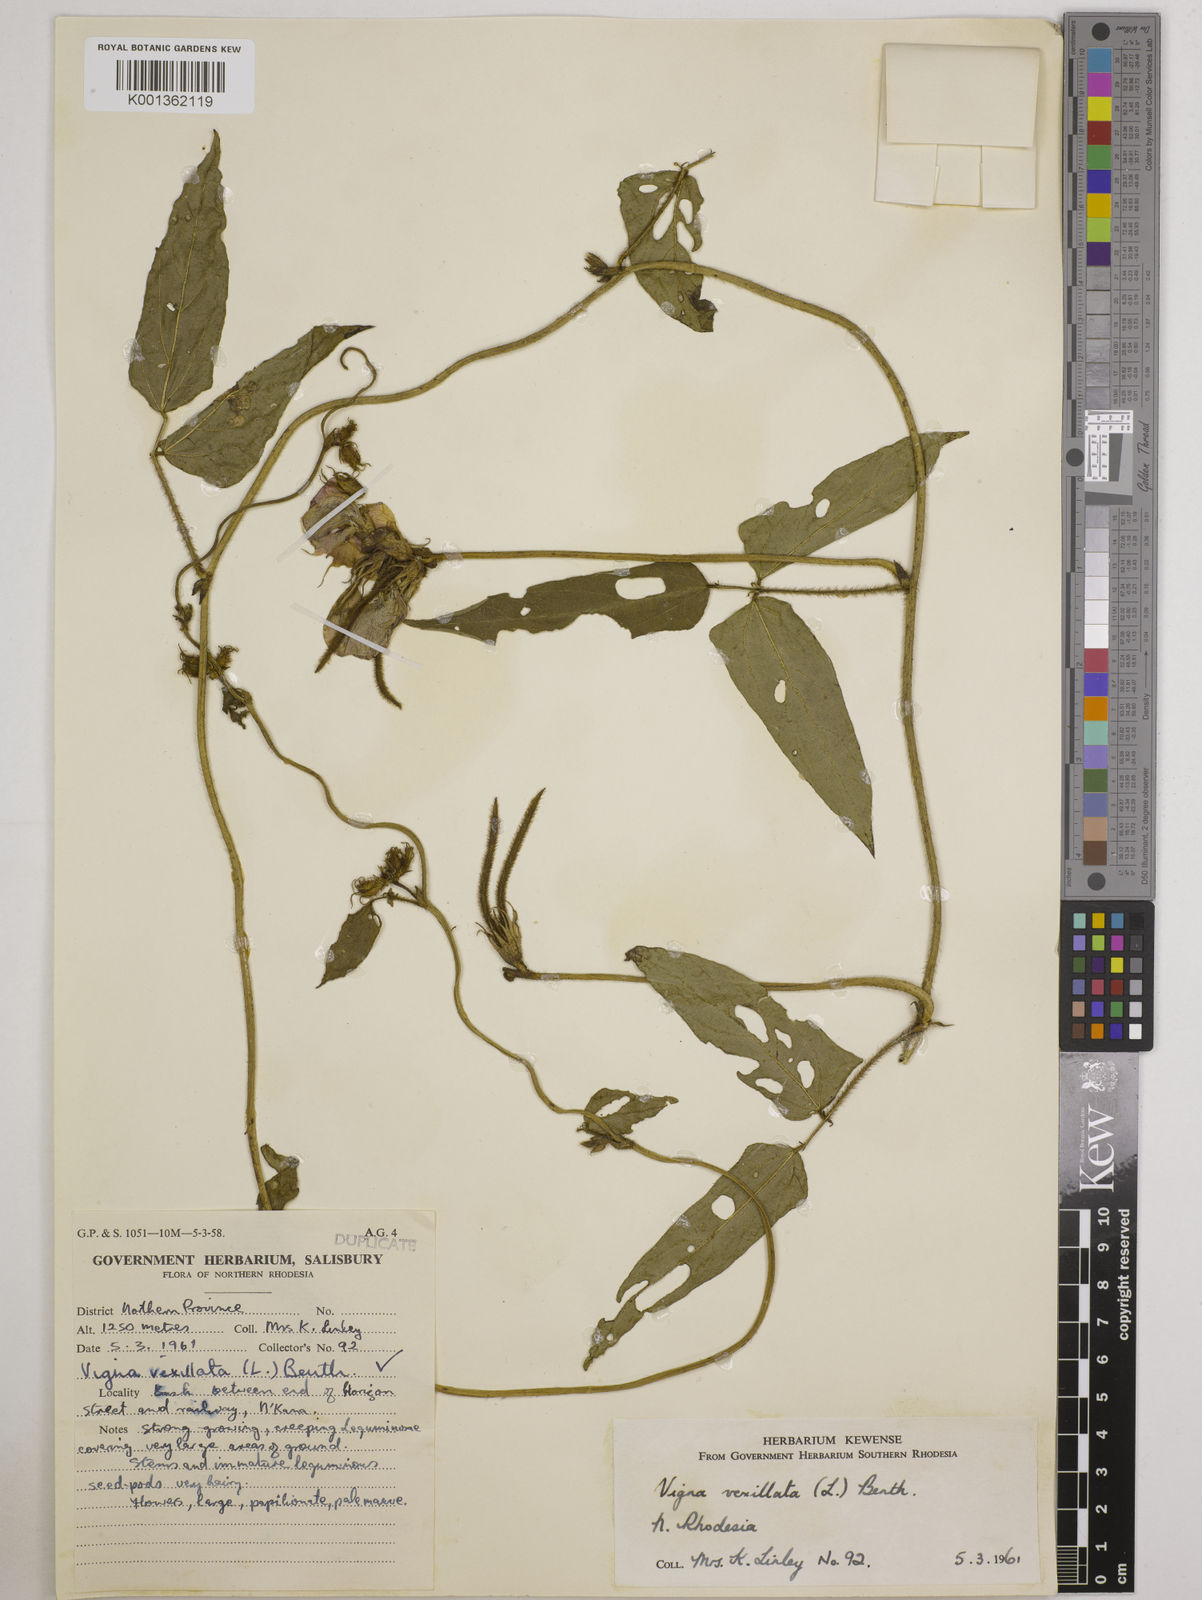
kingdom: Plantae
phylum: Tracheophyta
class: Magnoliopsida
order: Fabales
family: Fabaceae
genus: Vigna
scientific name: Vigna vexillata
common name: Zombi pea
